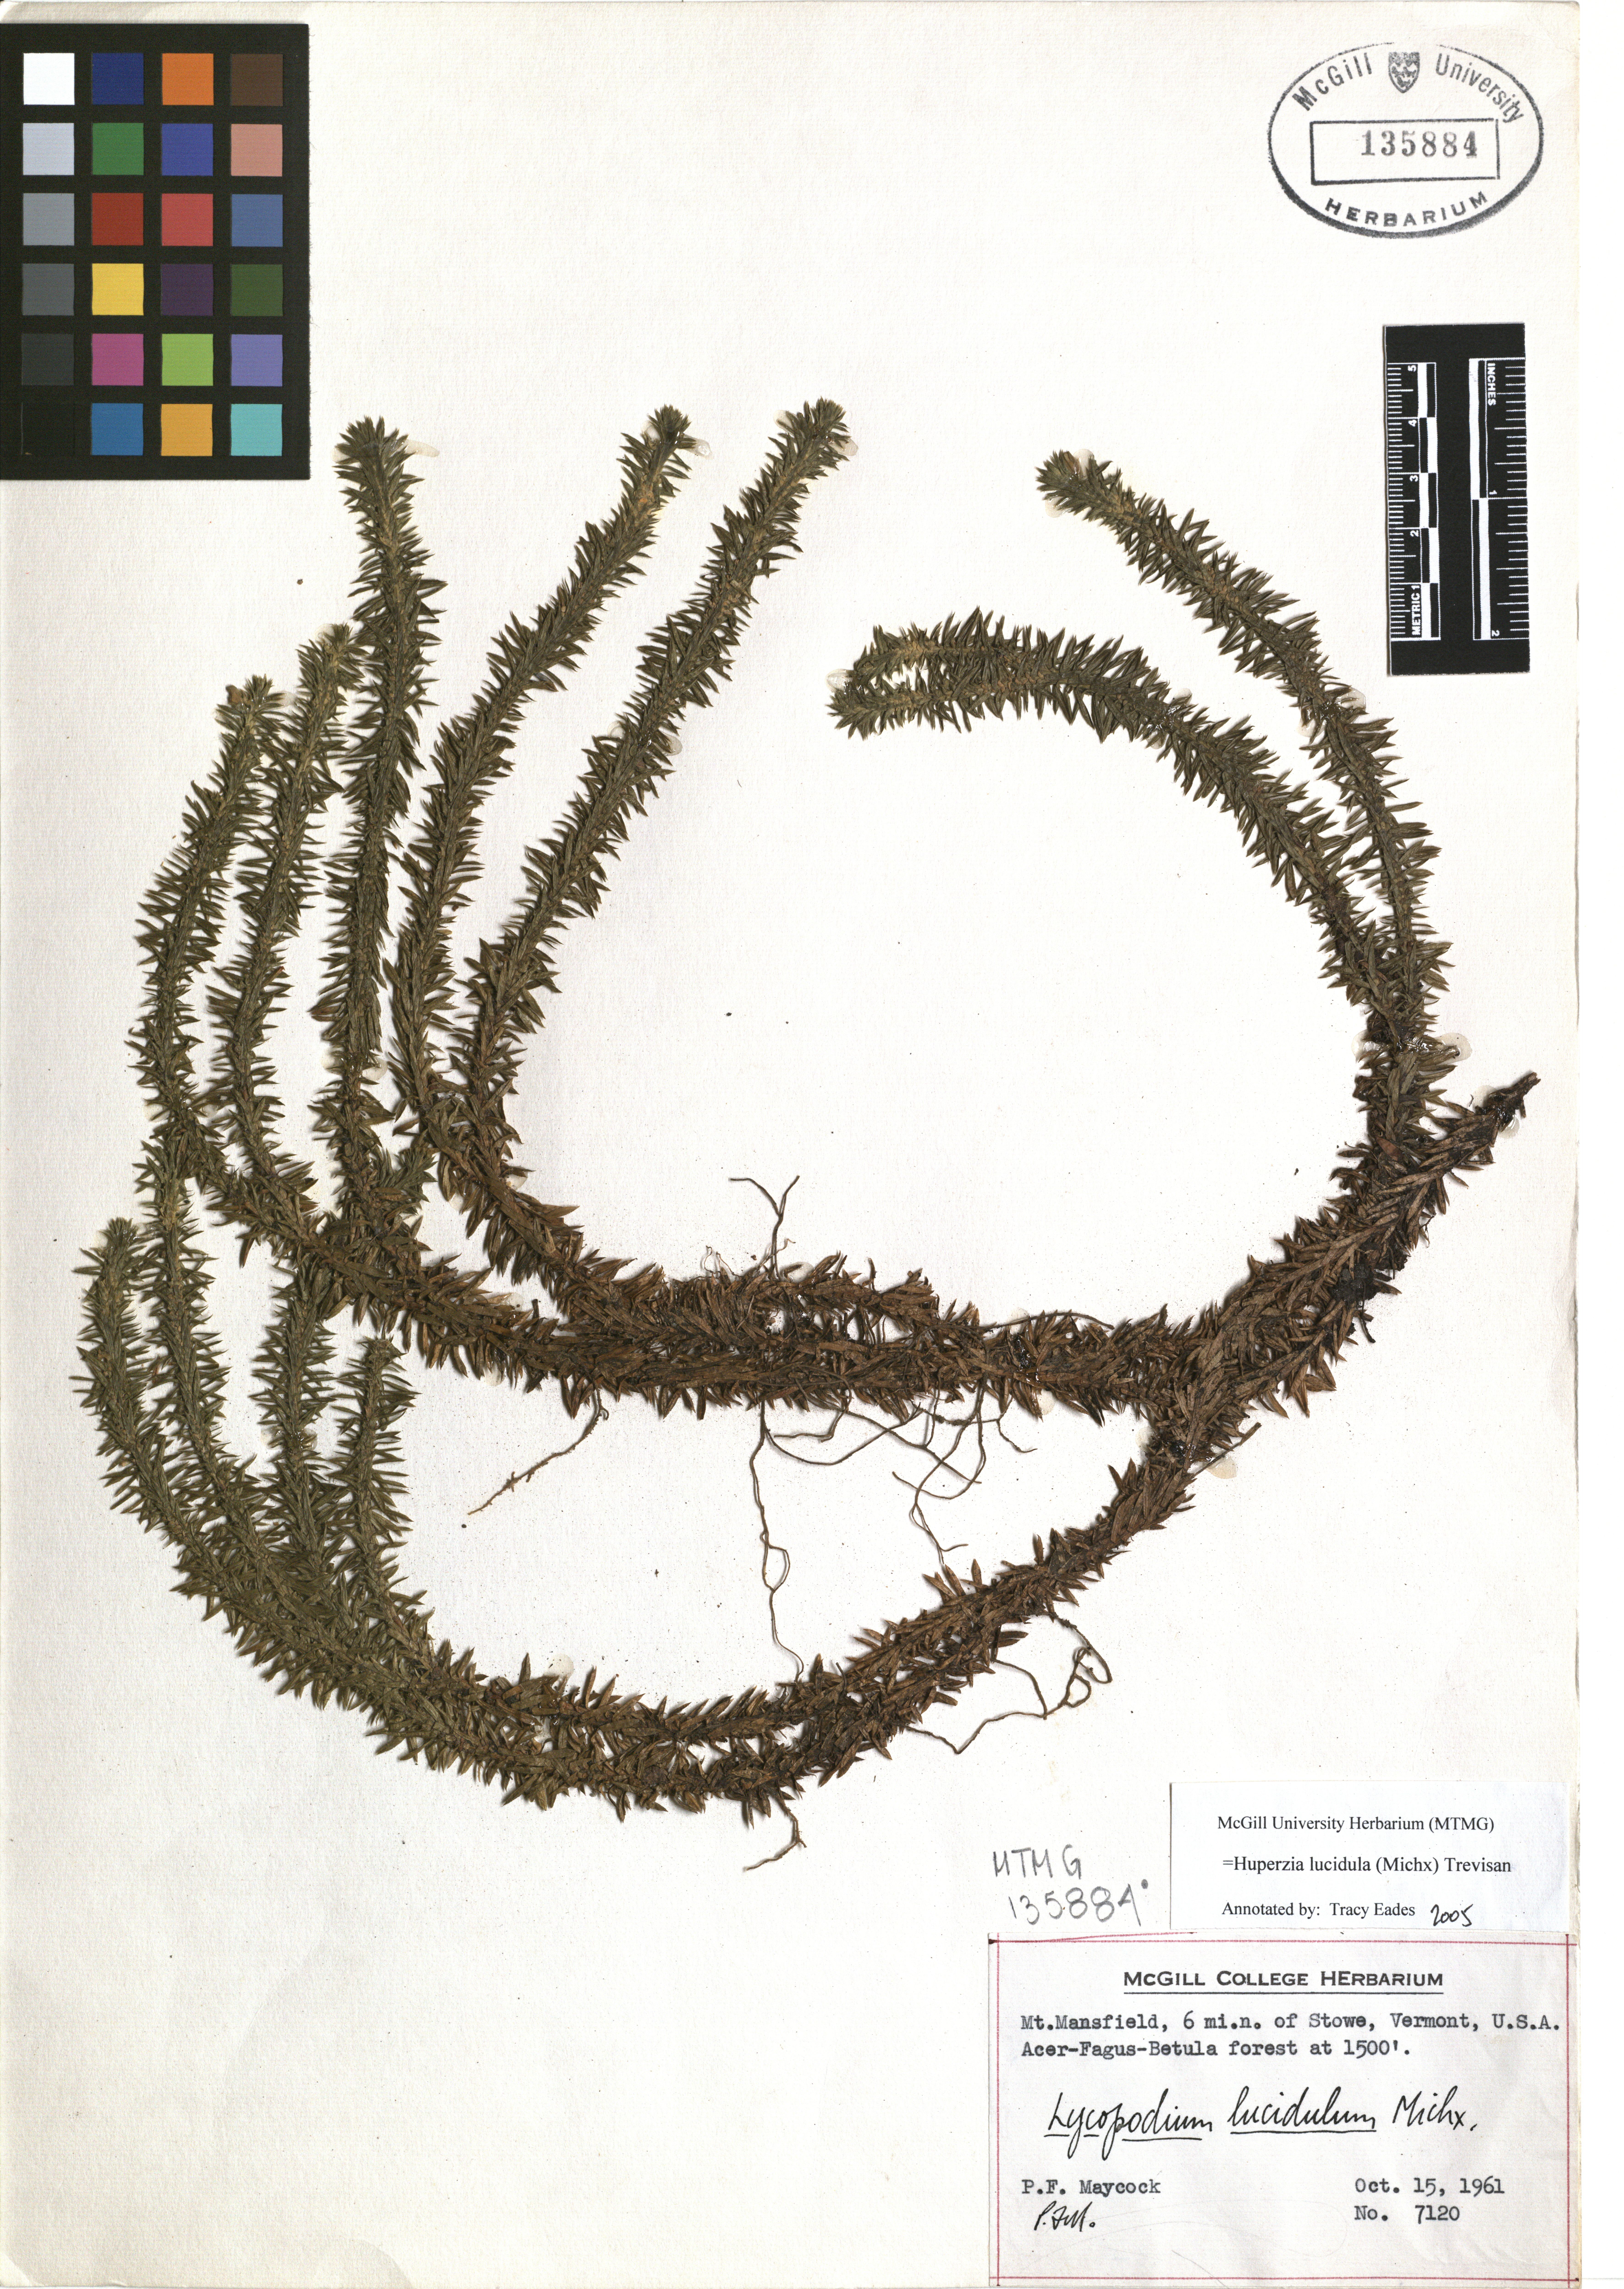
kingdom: Plantae
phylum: Tracheophyta
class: Lycopodiopsida
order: Lycopodiales
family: Lycopodiaceae
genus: Huperzia
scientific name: Huperzia lucidula
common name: Shining clubmoss
